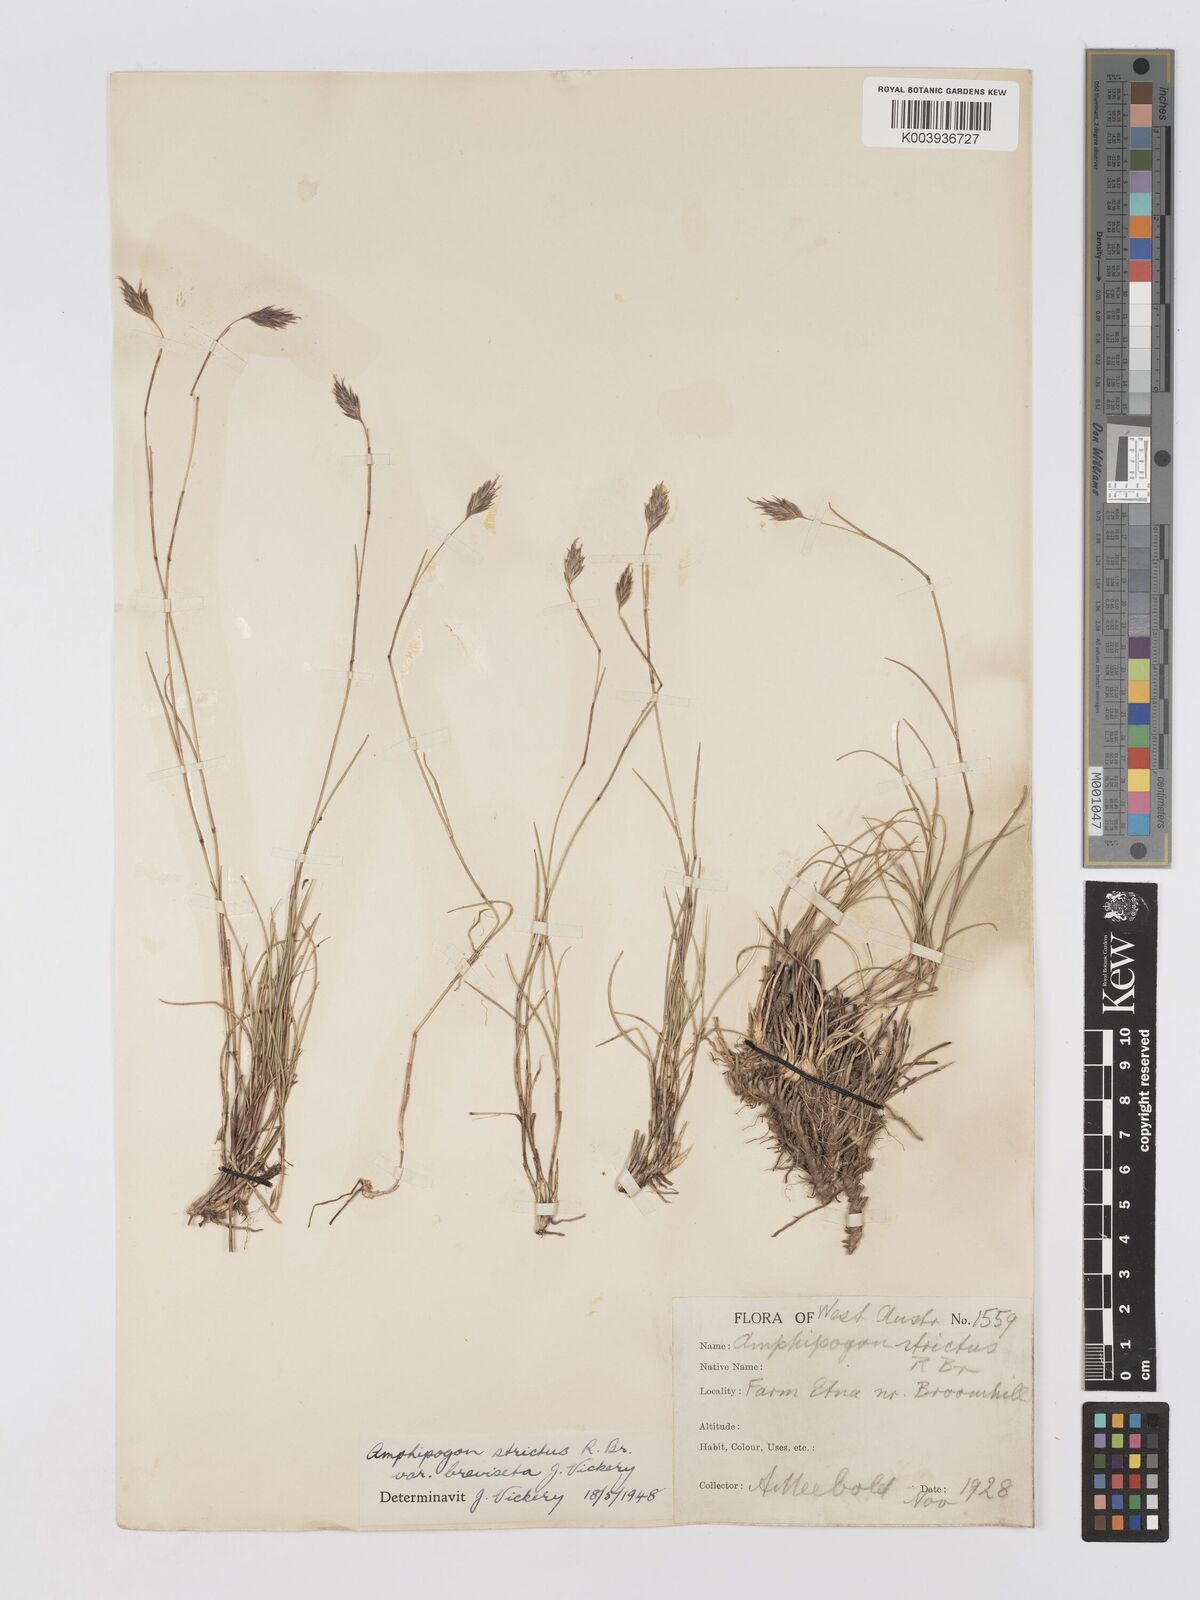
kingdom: Plantae
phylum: Tracheophyta
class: Liliopsida
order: Poales
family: Poaceae
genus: Amphipogon
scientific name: Amphipogon strictus
